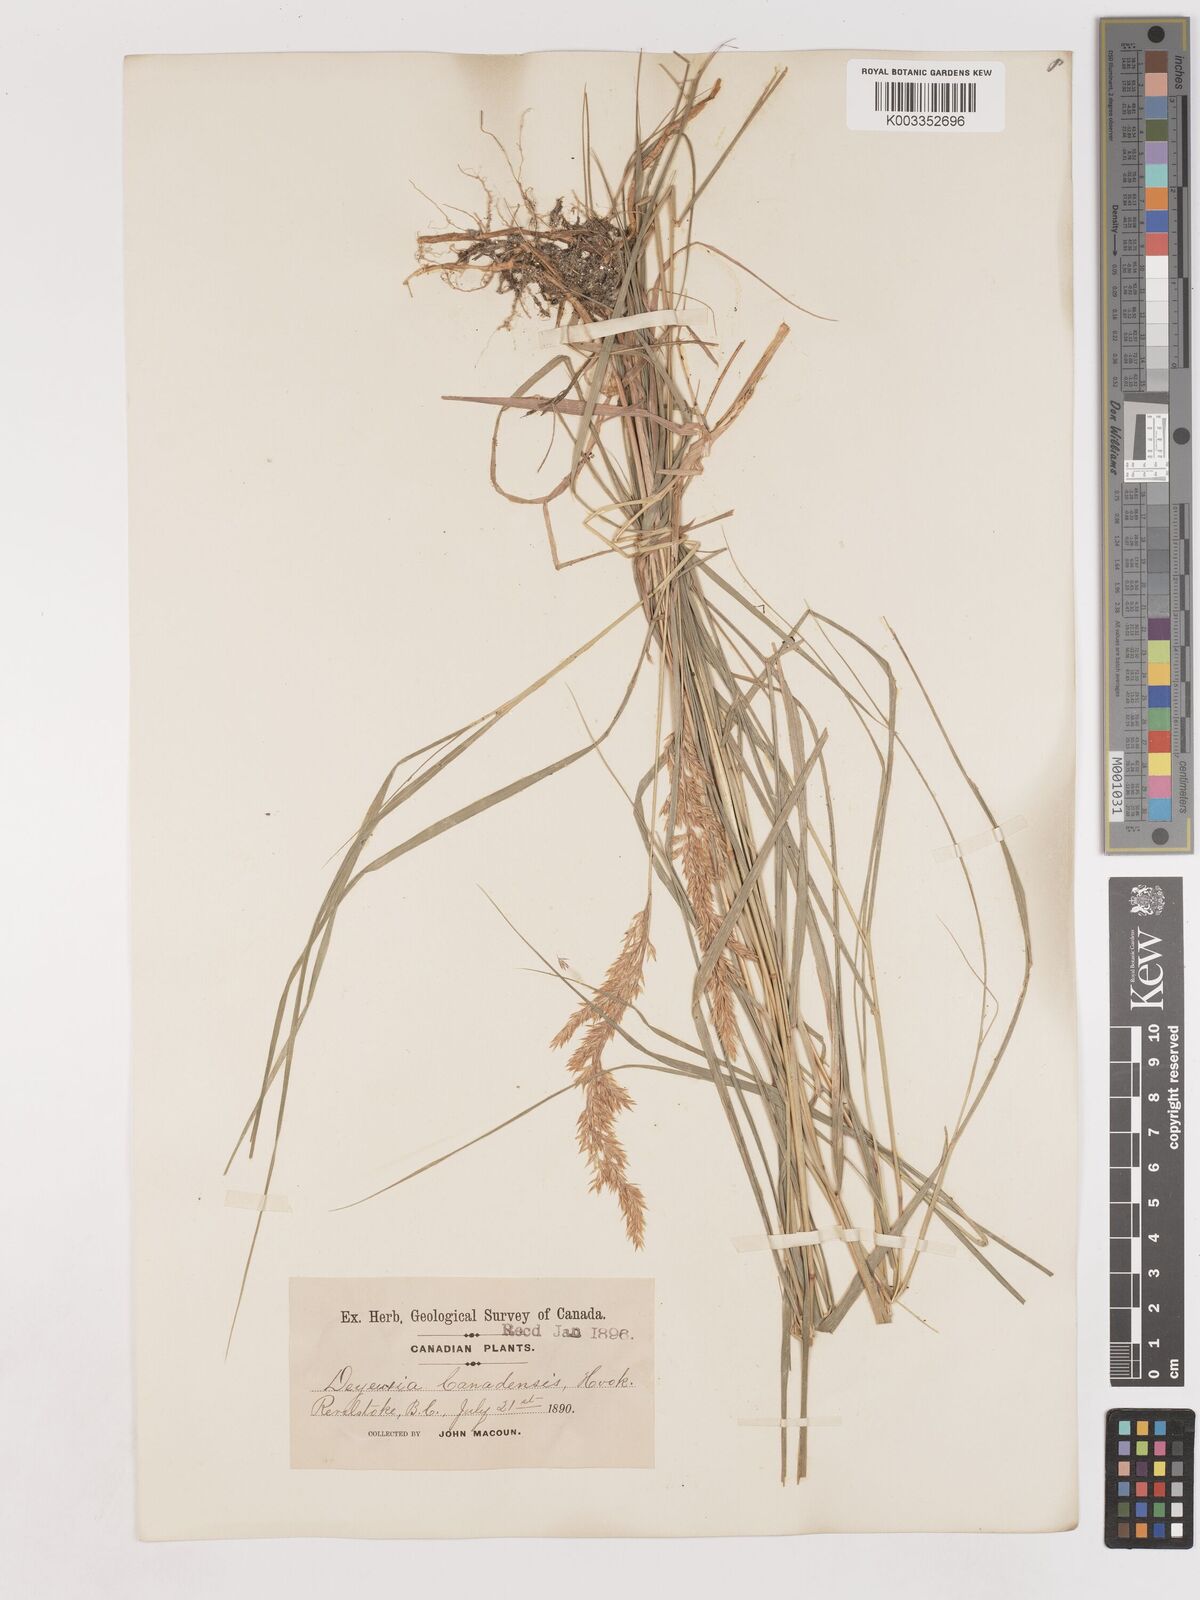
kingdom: Plantae
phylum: Tracheophyta
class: Liliopsida
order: Poales
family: Poaceae
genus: Calamagrostis
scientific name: Calamagrostis canadensis
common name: Canada bluejoint
